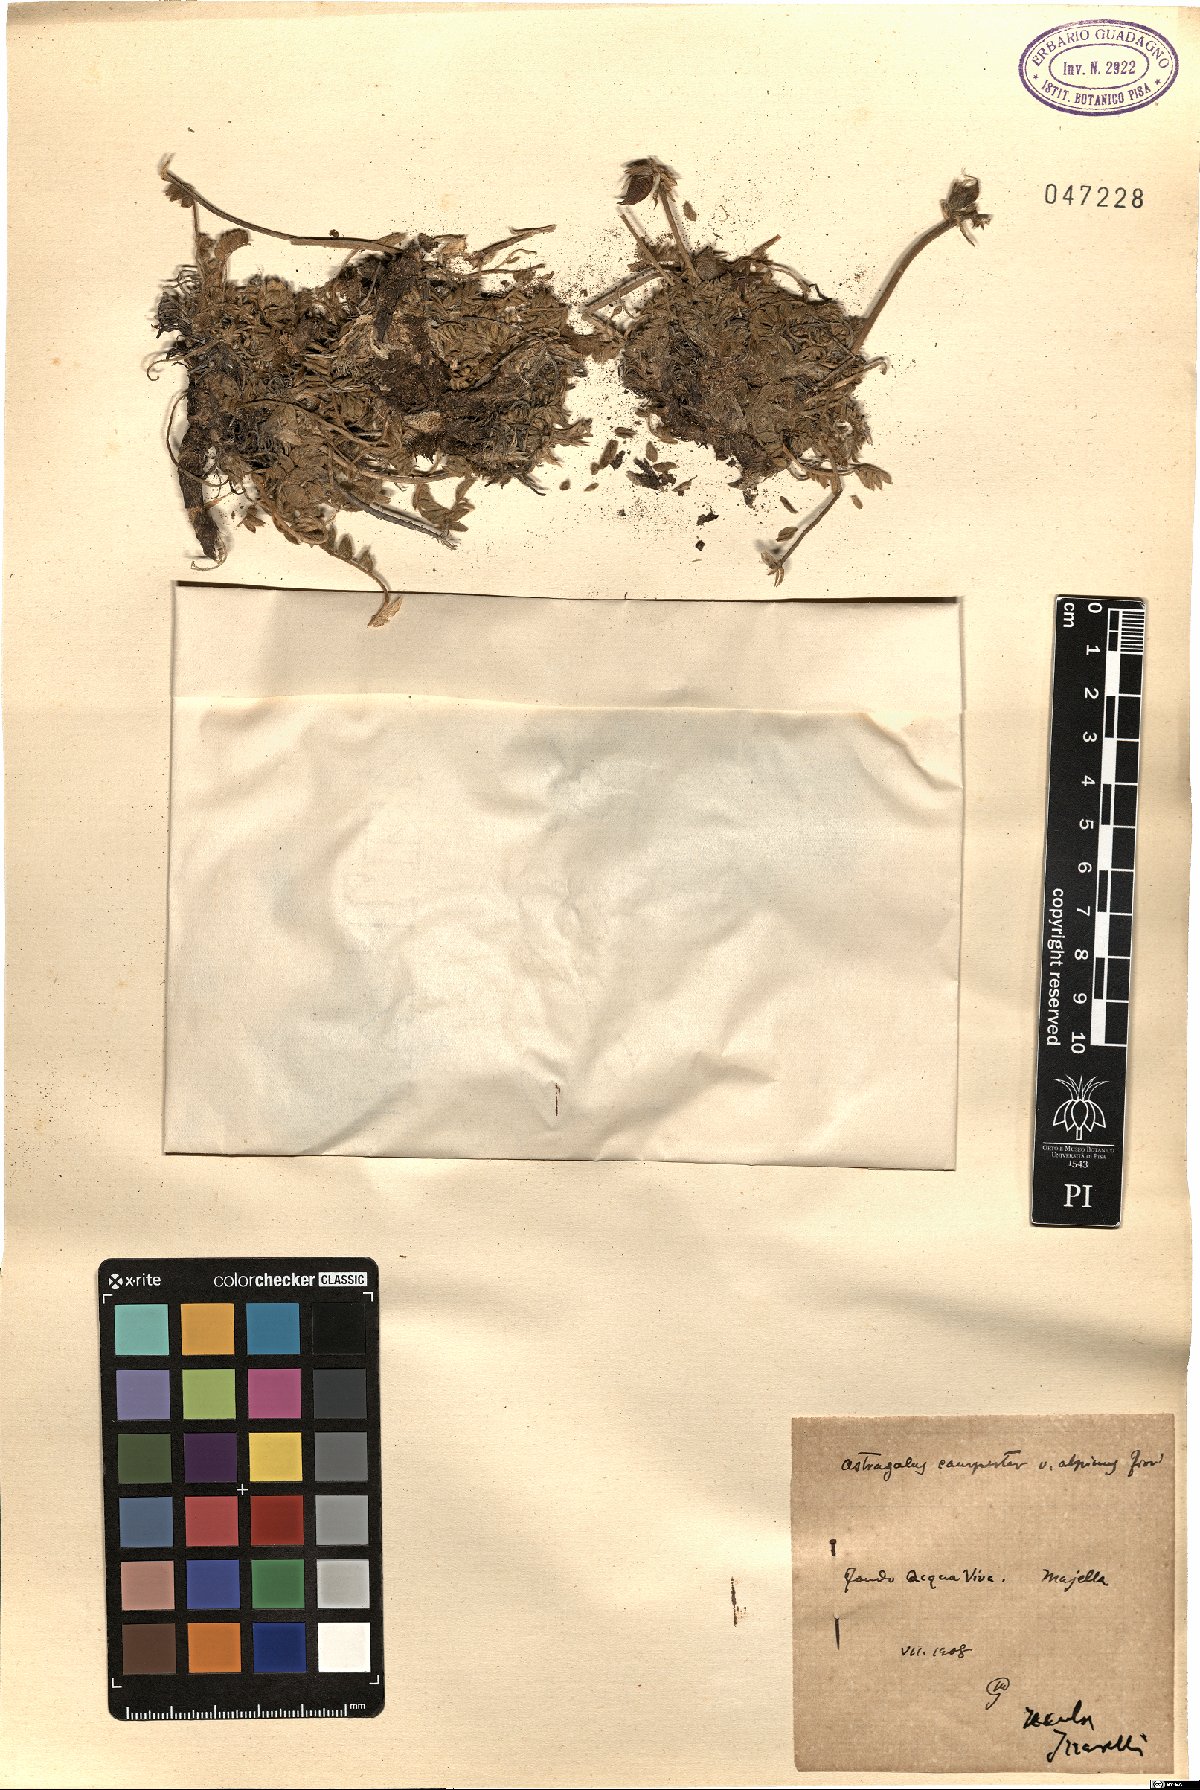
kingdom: Plantae
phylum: Tracheophyta
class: Magnoliopsida
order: Fabales
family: Fabaceae
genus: Oxytropis
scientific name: Oxytropis campestris
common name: Field locoweed
